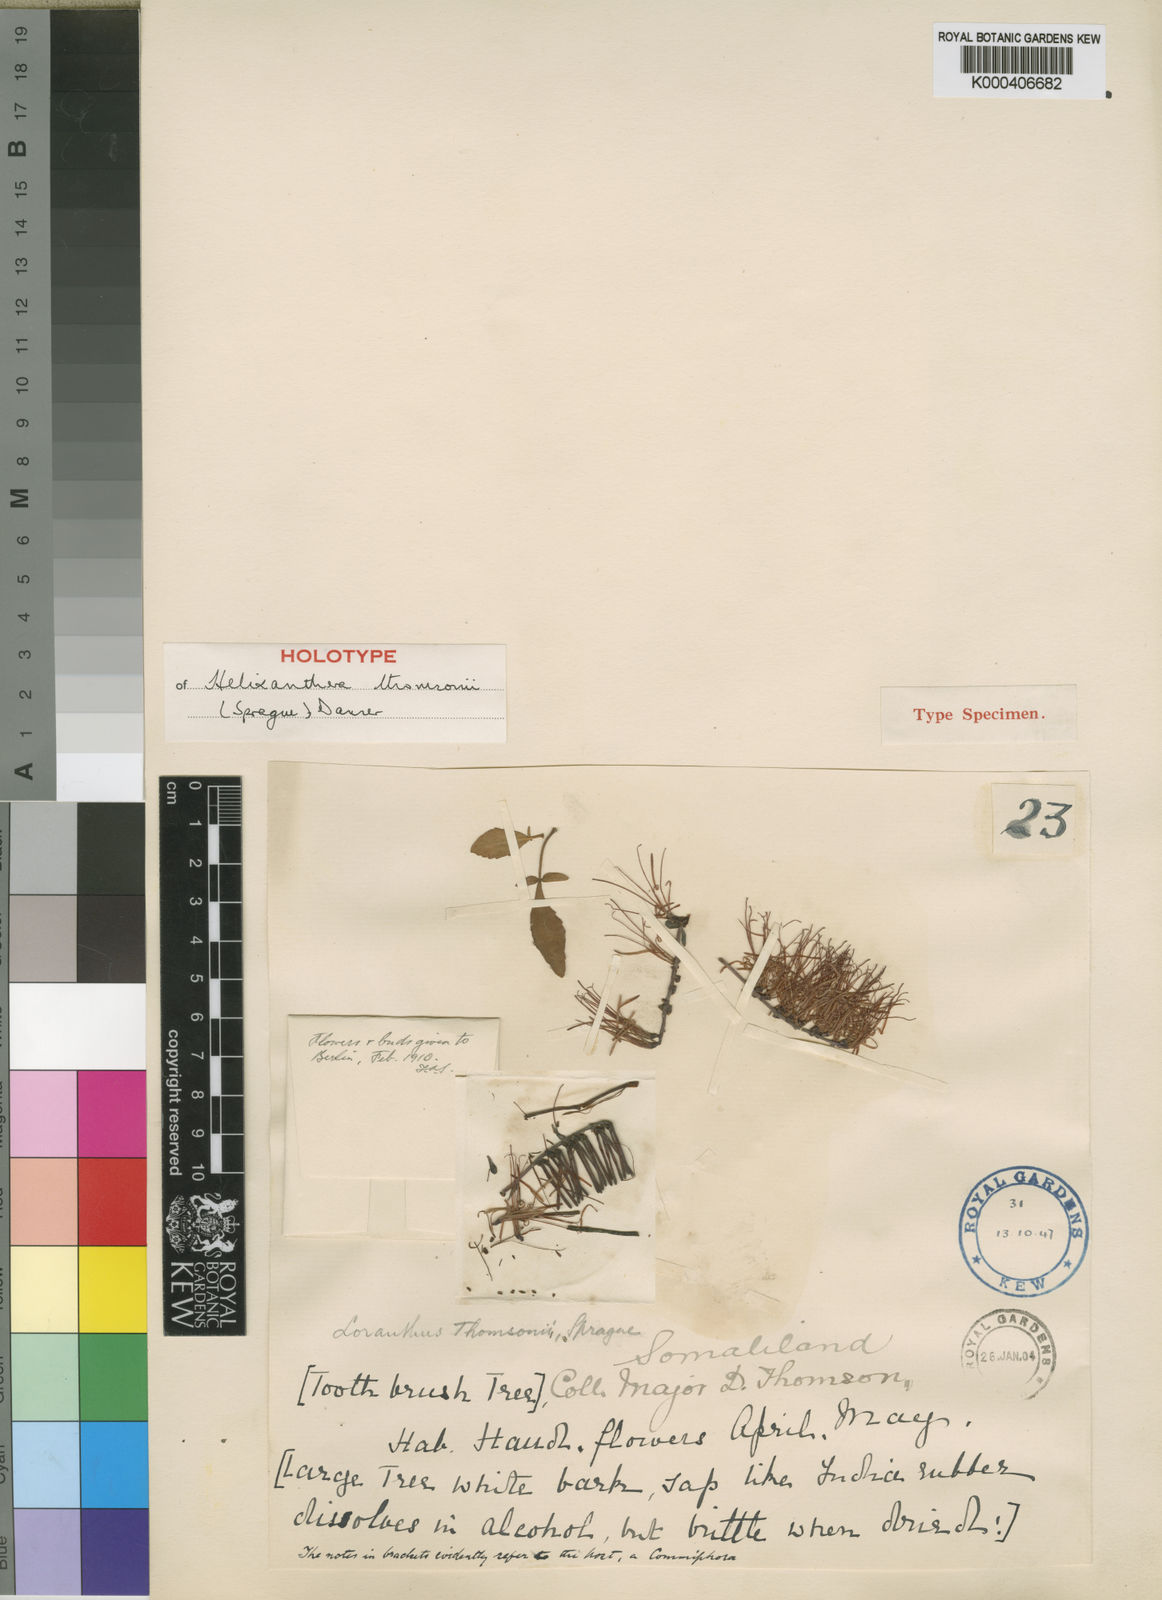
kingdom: Plantae
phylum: Tracheophyta
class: Magnoliopsida
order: Santalales
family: Loranthaceae
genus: Helixanthera
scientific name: Helixanthera thomsonii
